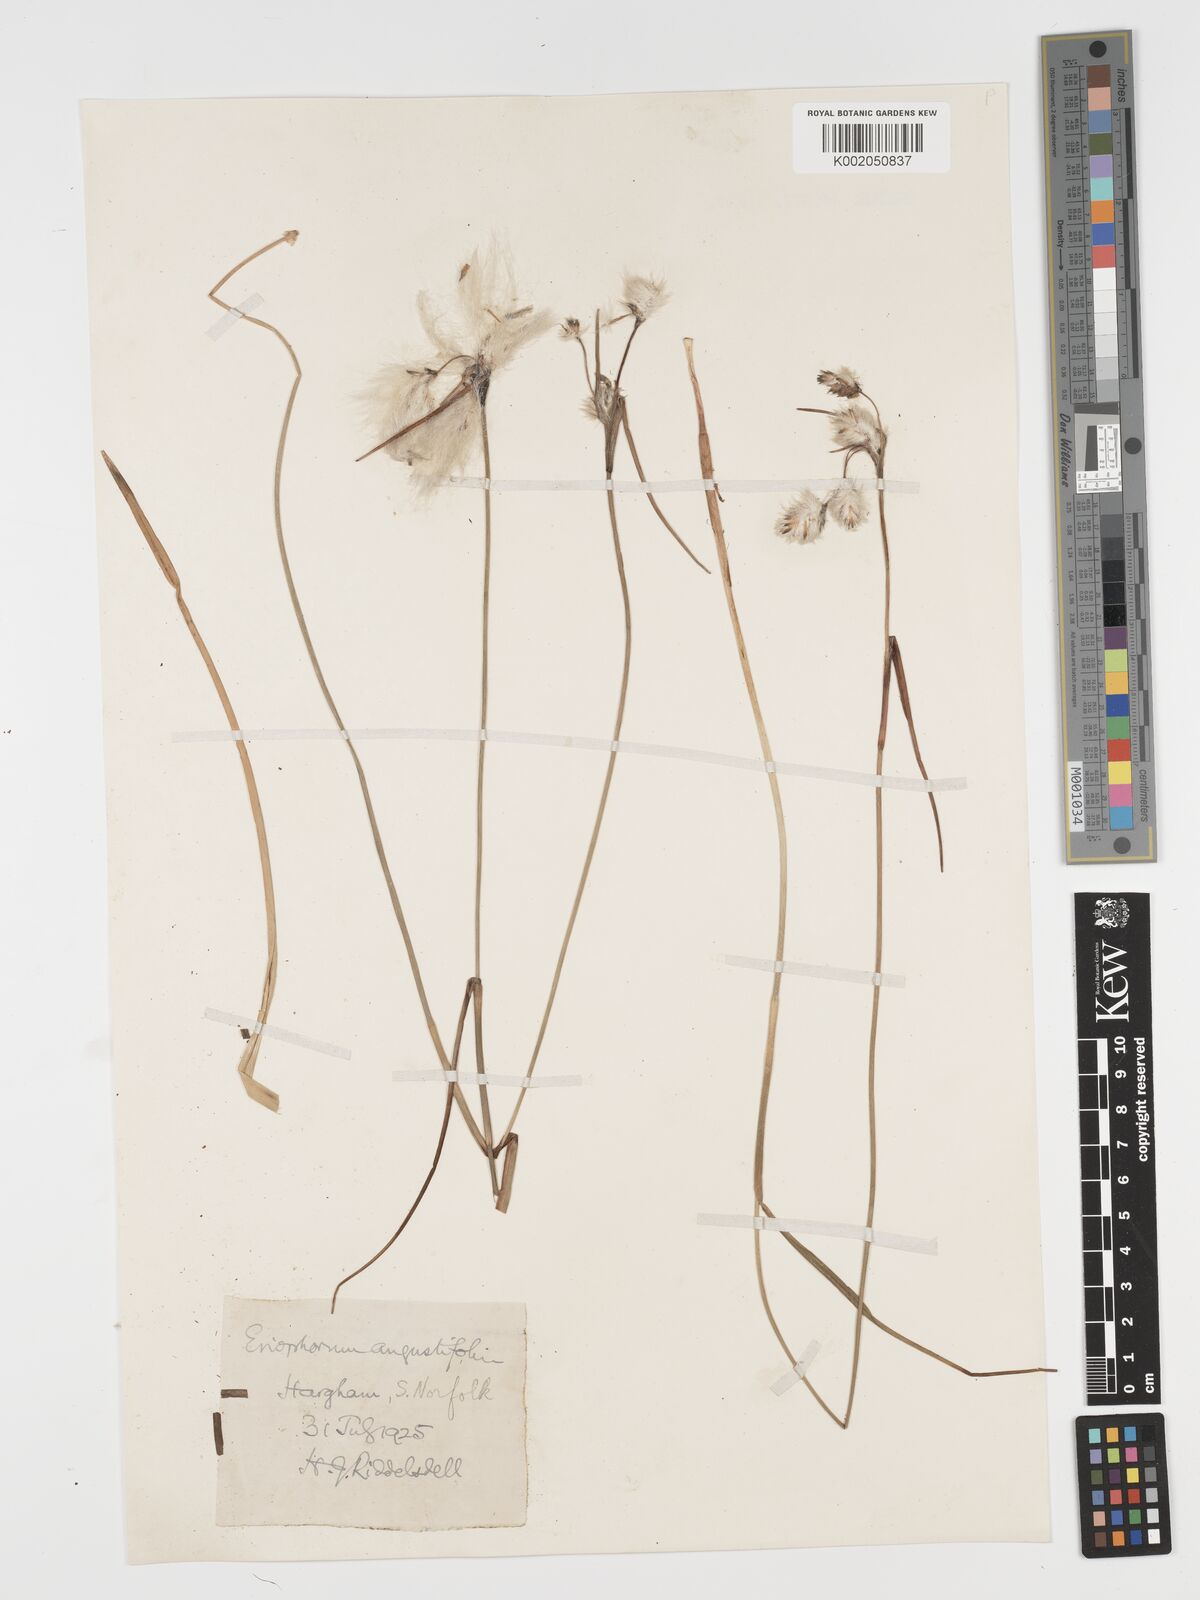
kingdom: Plantae
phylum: Tracheophyta
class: Liliopsida
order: Poales
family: Cyperaceae
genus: Eriophorum
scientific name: Eriophorum angustifolium
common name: Common cottongrass
